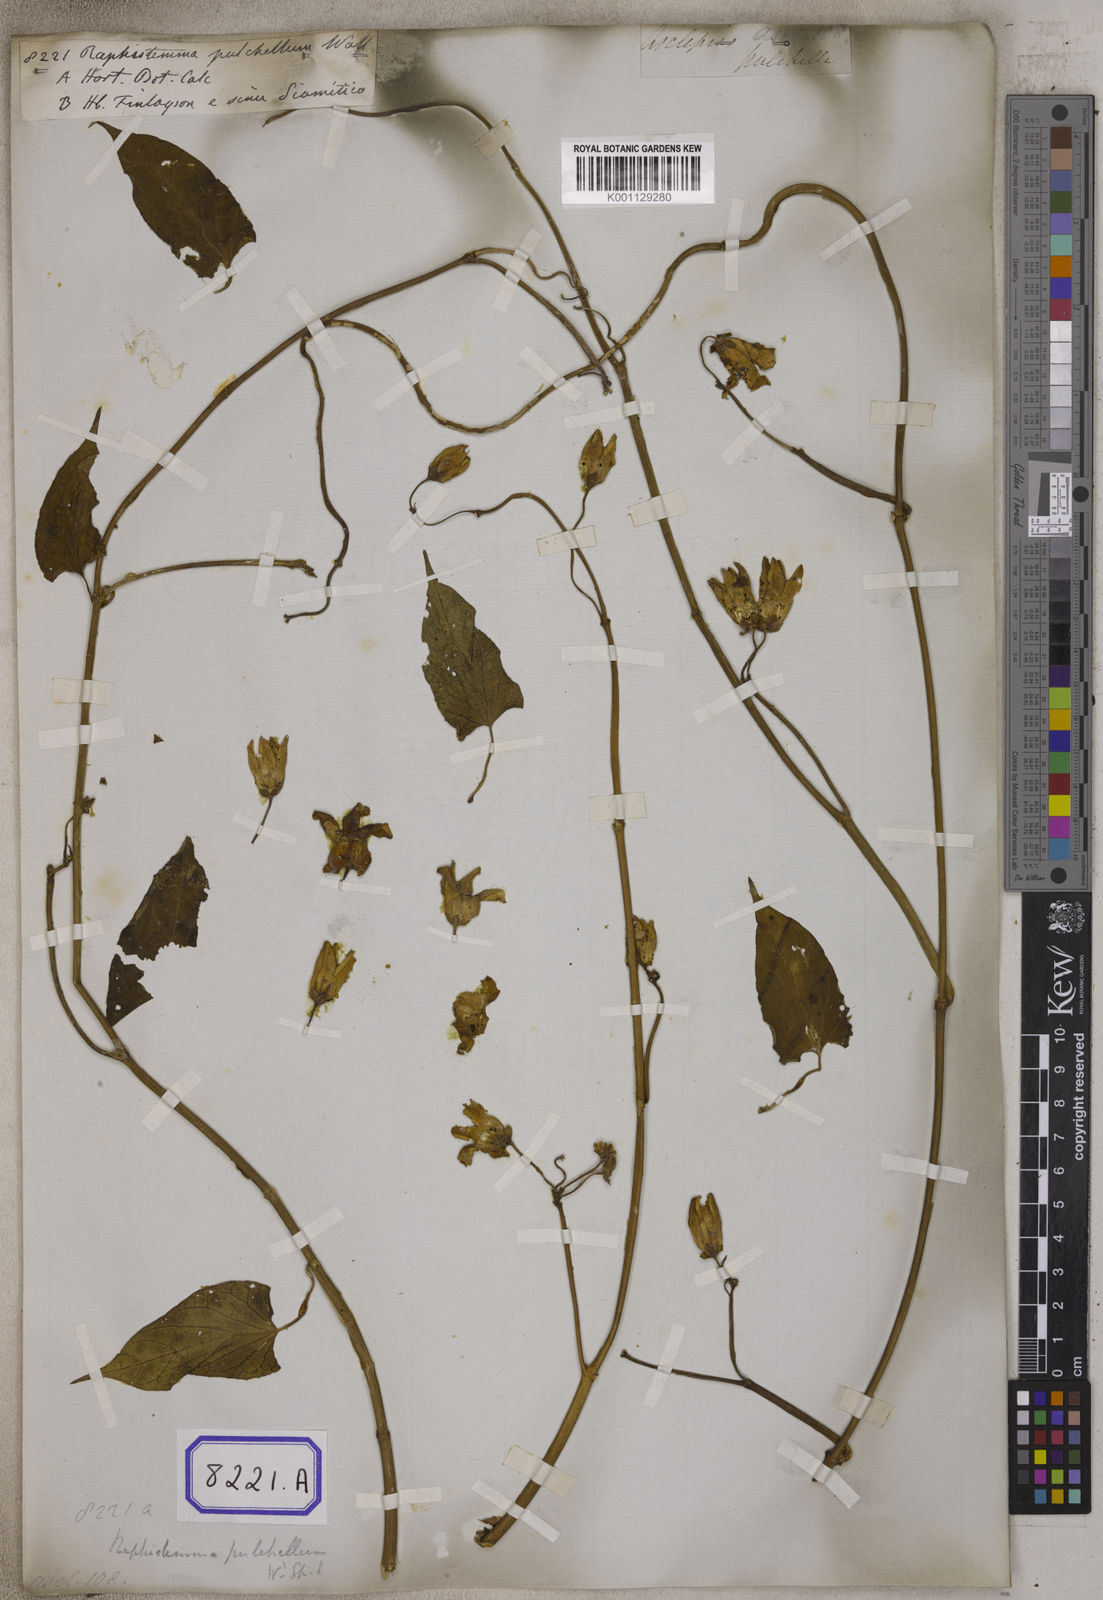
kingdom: Plantae
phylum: Tracheophyta
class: Magnoliopsida
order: Gentianales
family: Apocynaceae
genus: Cynanchum
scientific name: Cynanchum pulchellum
